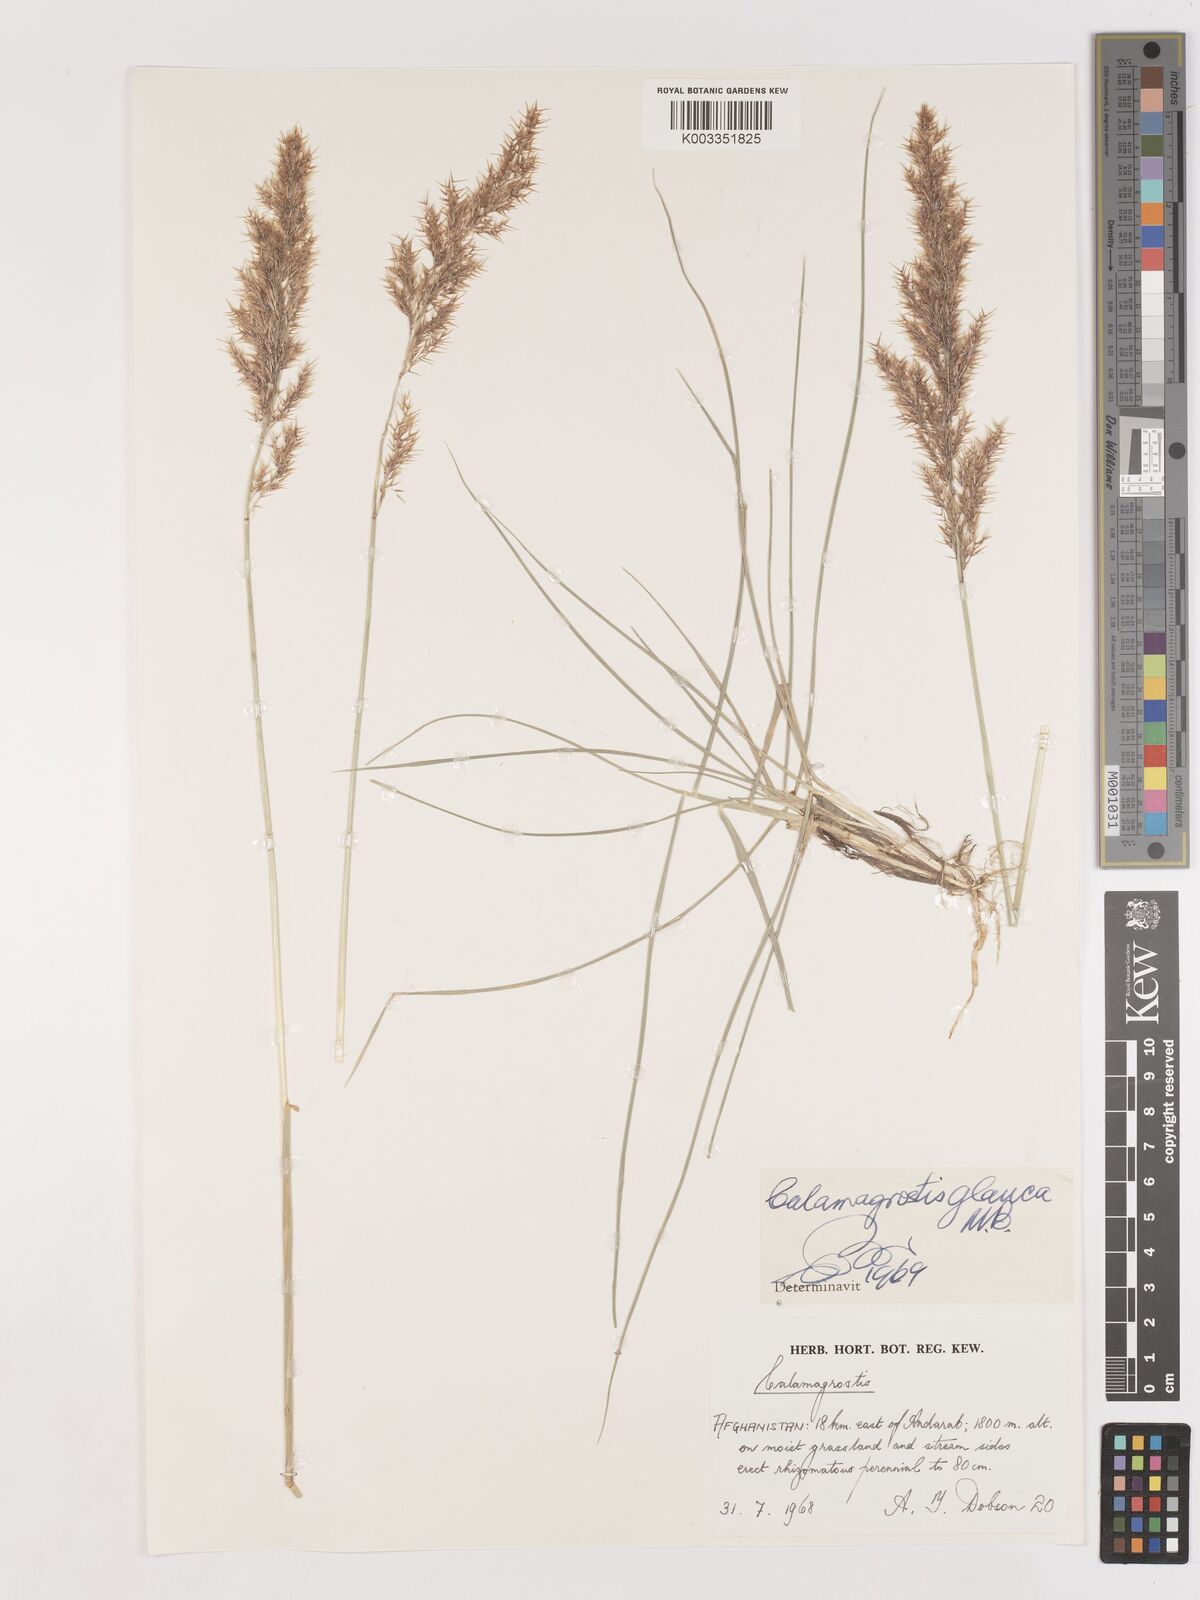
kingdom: Plantae
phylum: Tracheophyta
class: Liliopsida
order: Poales
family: Poaceae
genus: Calamagrostis
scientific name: Calamagrostis pseudophragmites
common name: Coastal small-reed
